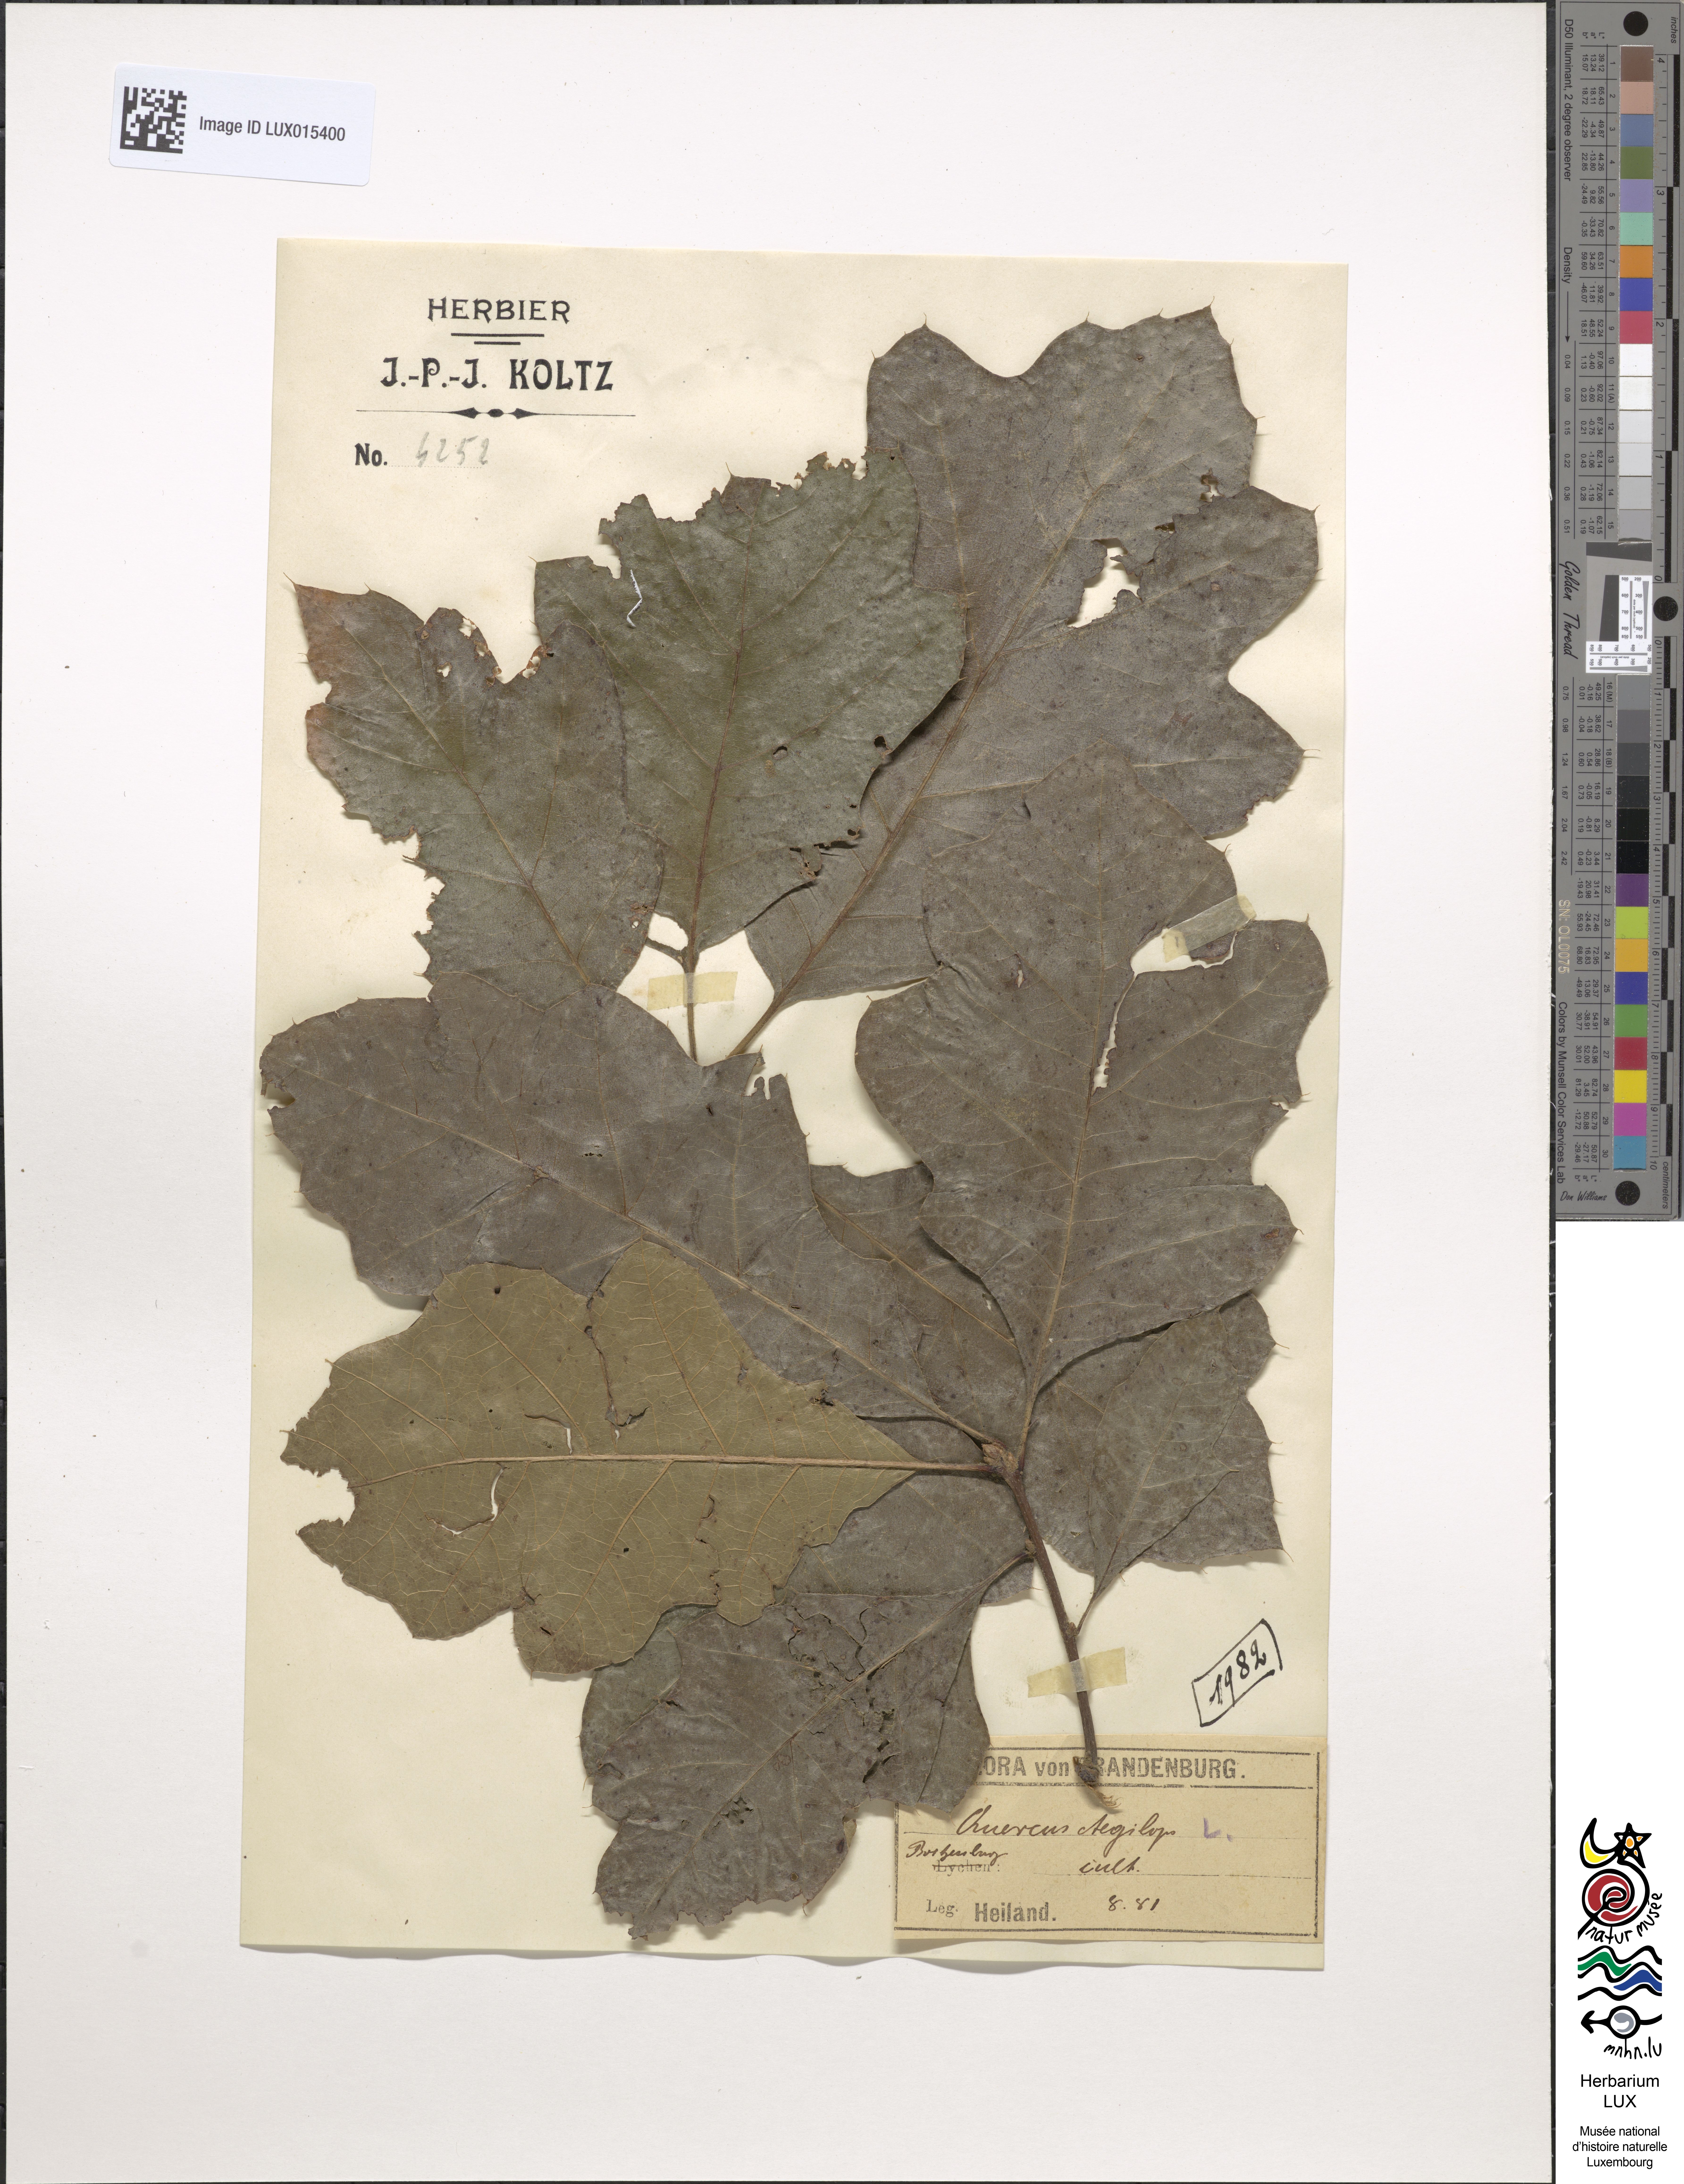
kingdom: Plantae
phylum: Tracheophyta
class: Magnoliopsida
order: Fagales
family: Fagaceae
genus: Quercus
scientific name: Quercus ithaburensis
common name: Tabor oak
